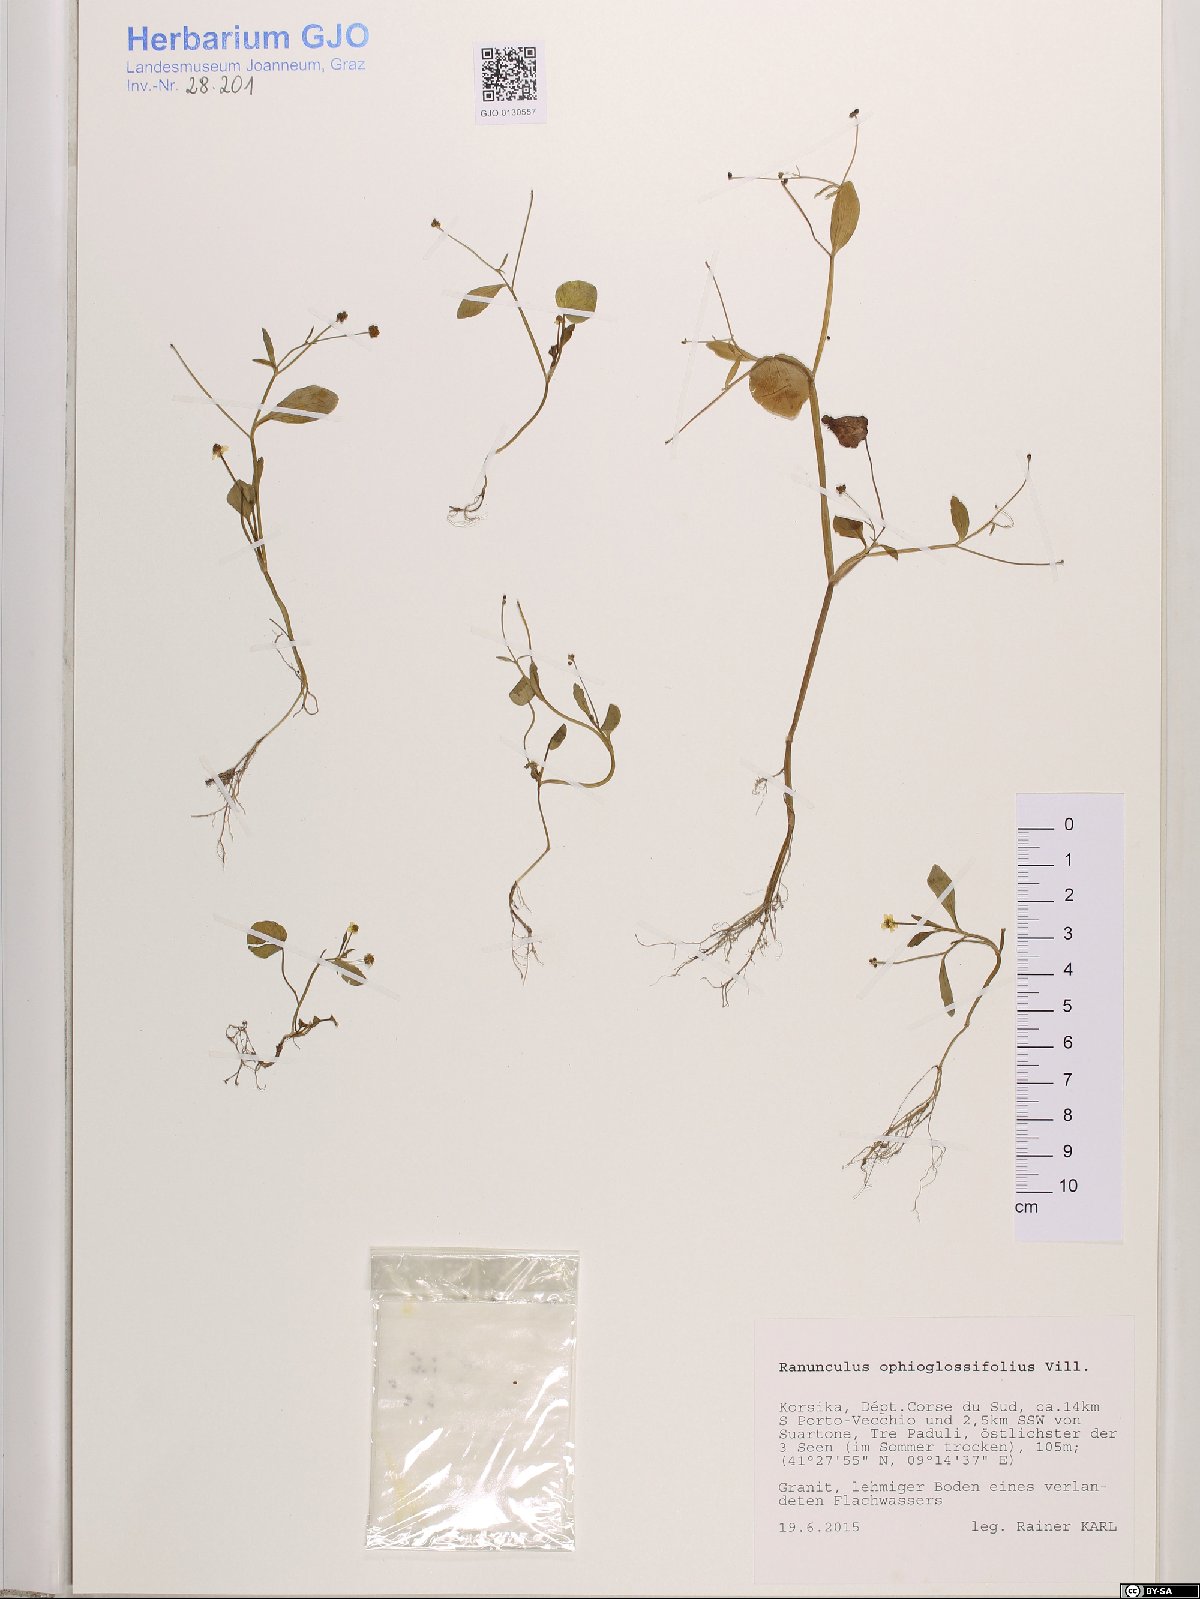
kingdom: Plantae
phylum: Tracheophyta
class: Magnoliopsida
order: Ranunculales
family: Ranunculaceae
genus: Ranunculus
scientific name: Ranunculus ophioglossifolius
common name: Adder's-tongue spearwort
